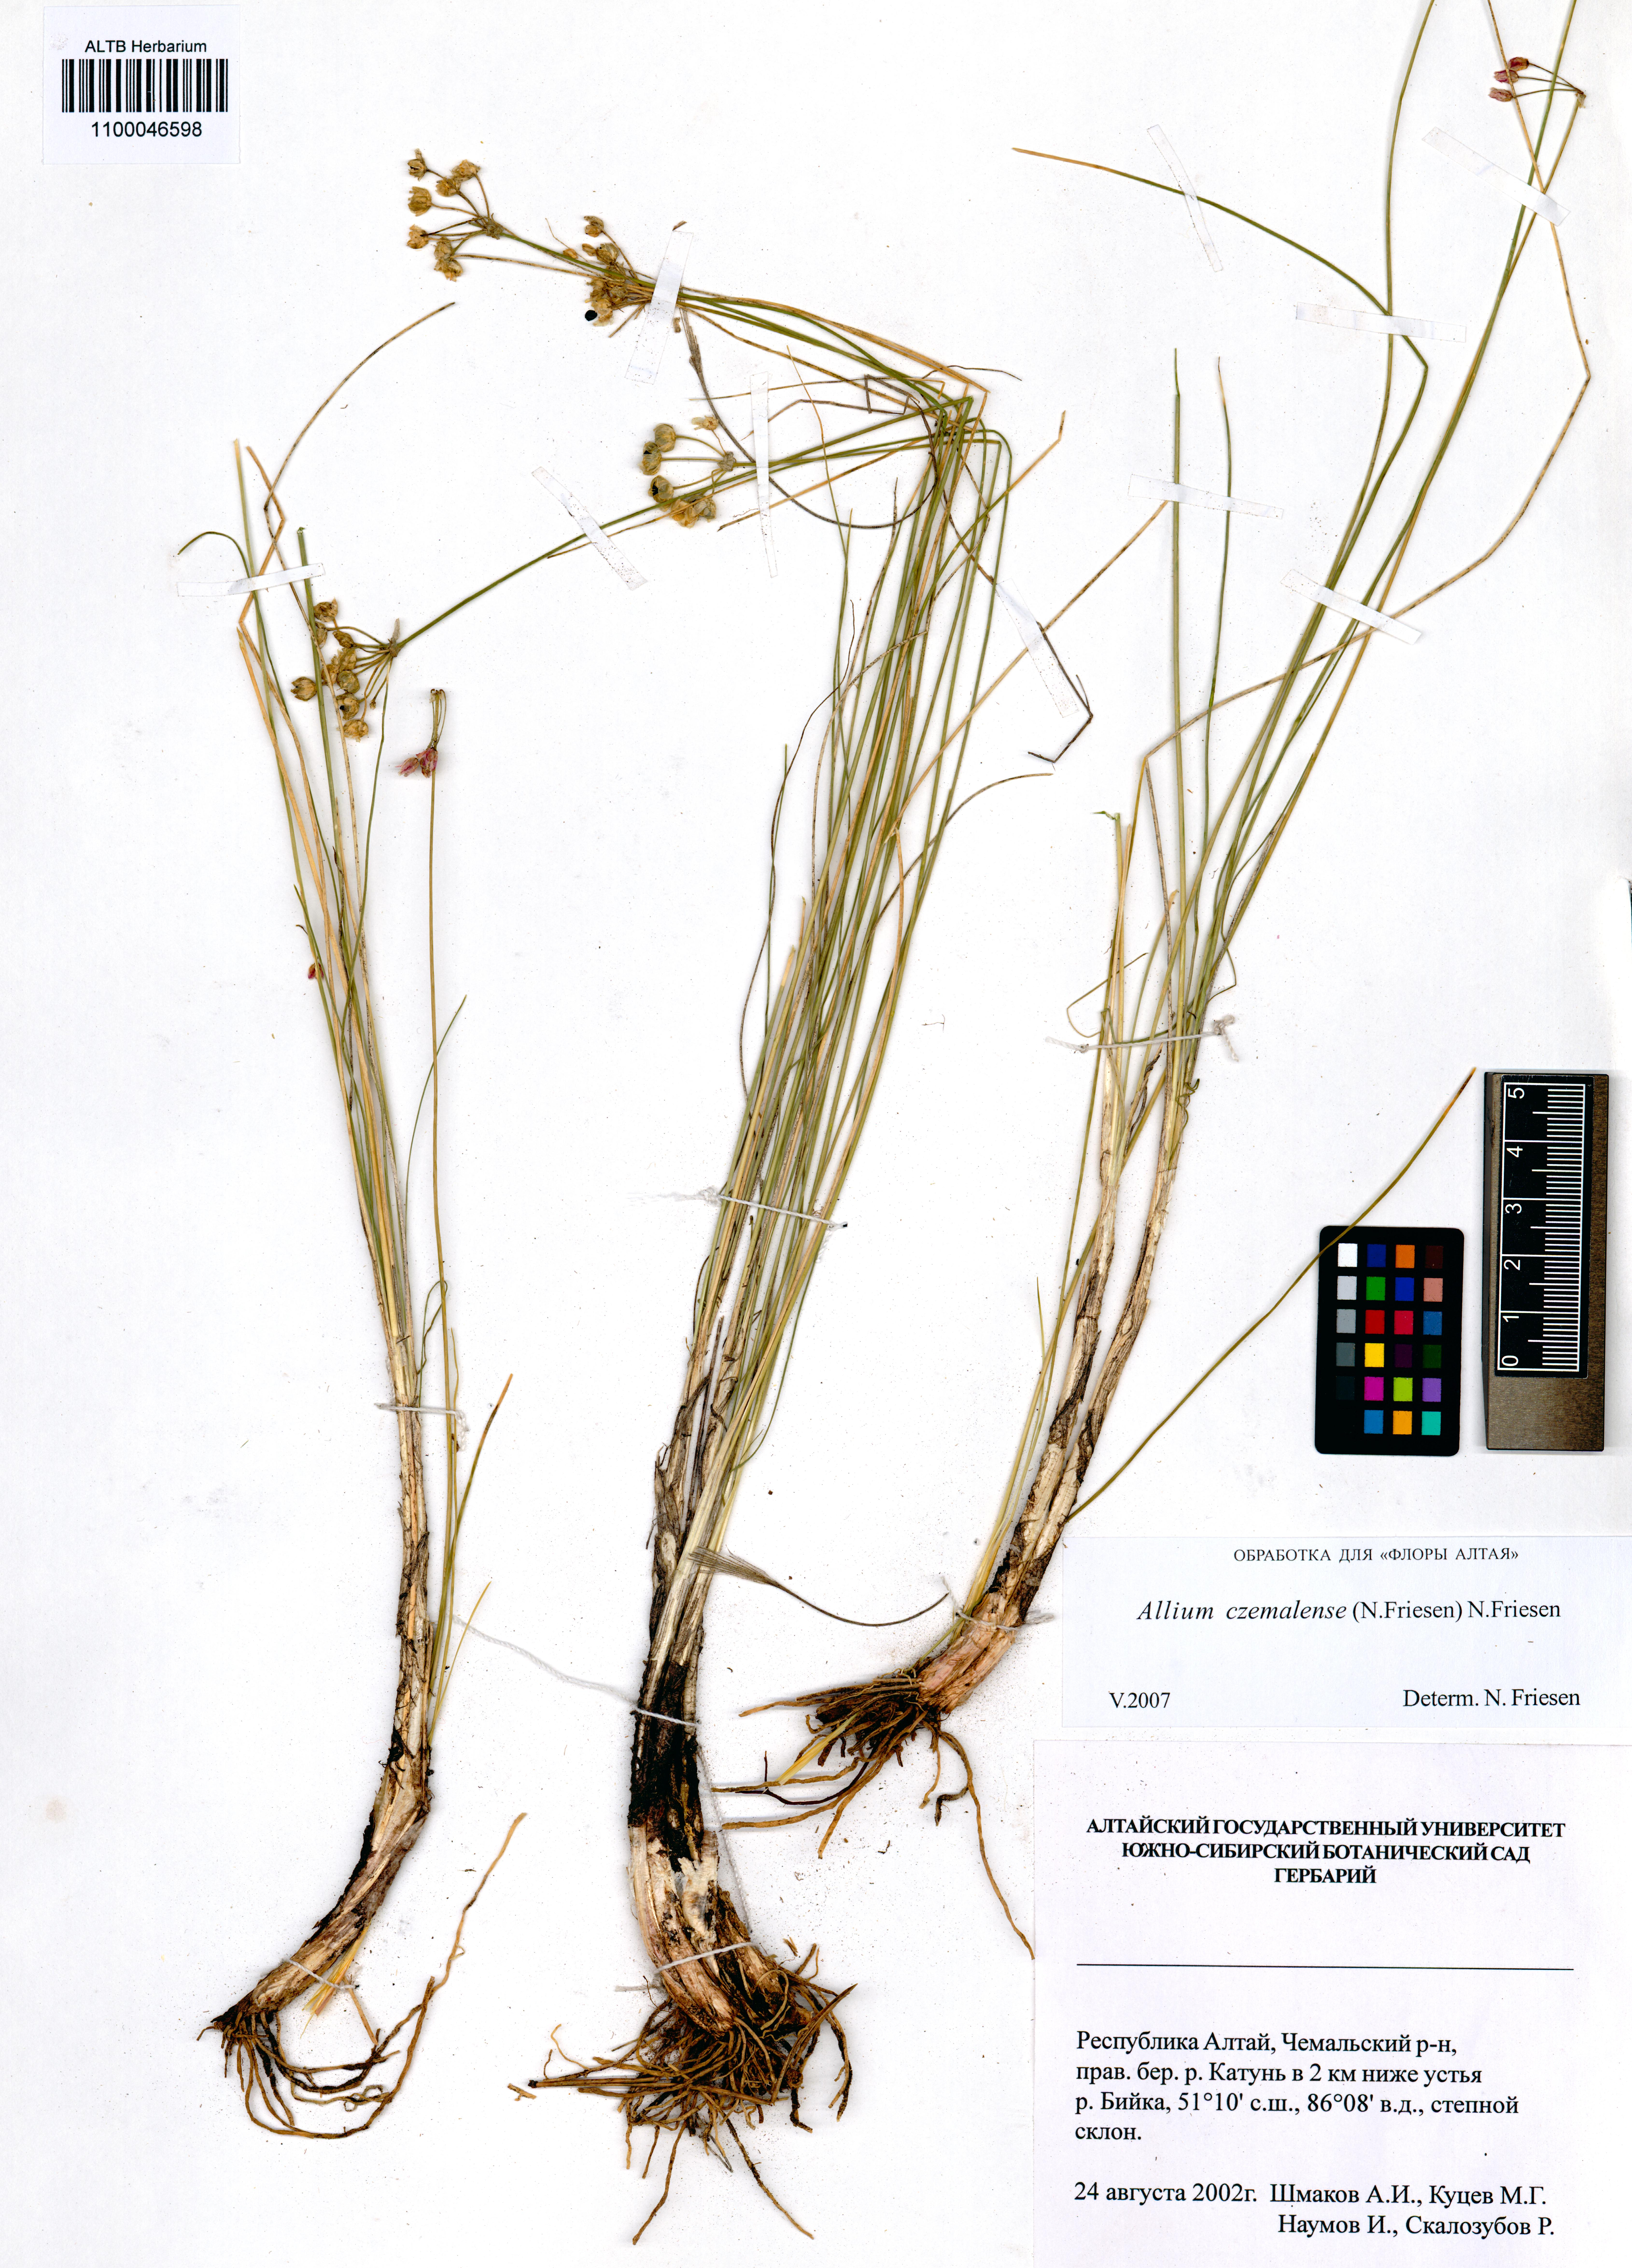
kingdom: Plantae
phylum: Tracheophyta
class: Liliopsida
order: Asparagales
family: Amaryllidaceae
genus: Allium
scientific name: Allium
